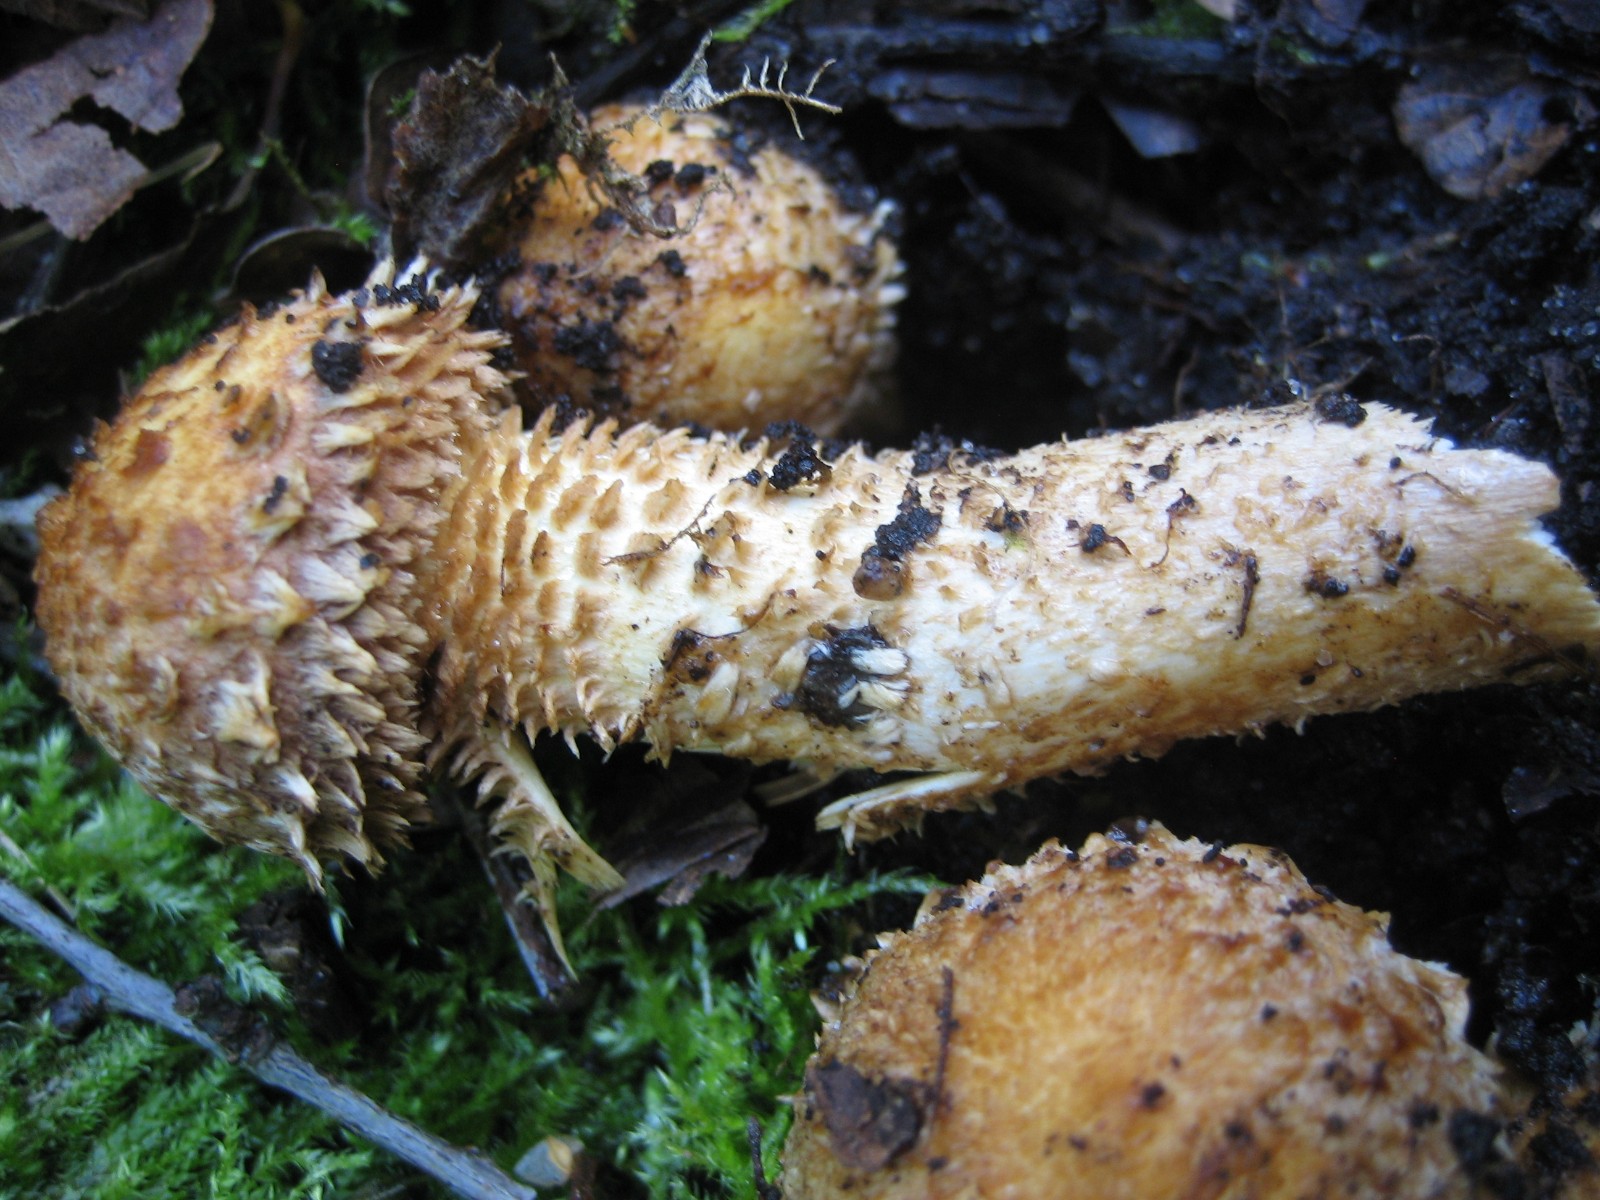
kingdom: Fungi
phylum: Basidiomycota
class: Agaricomycetes
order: Agaricales
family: Strophariaceae
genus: Pholiota
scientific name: Pholiota squarrosa
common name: krumskællet skælhat
